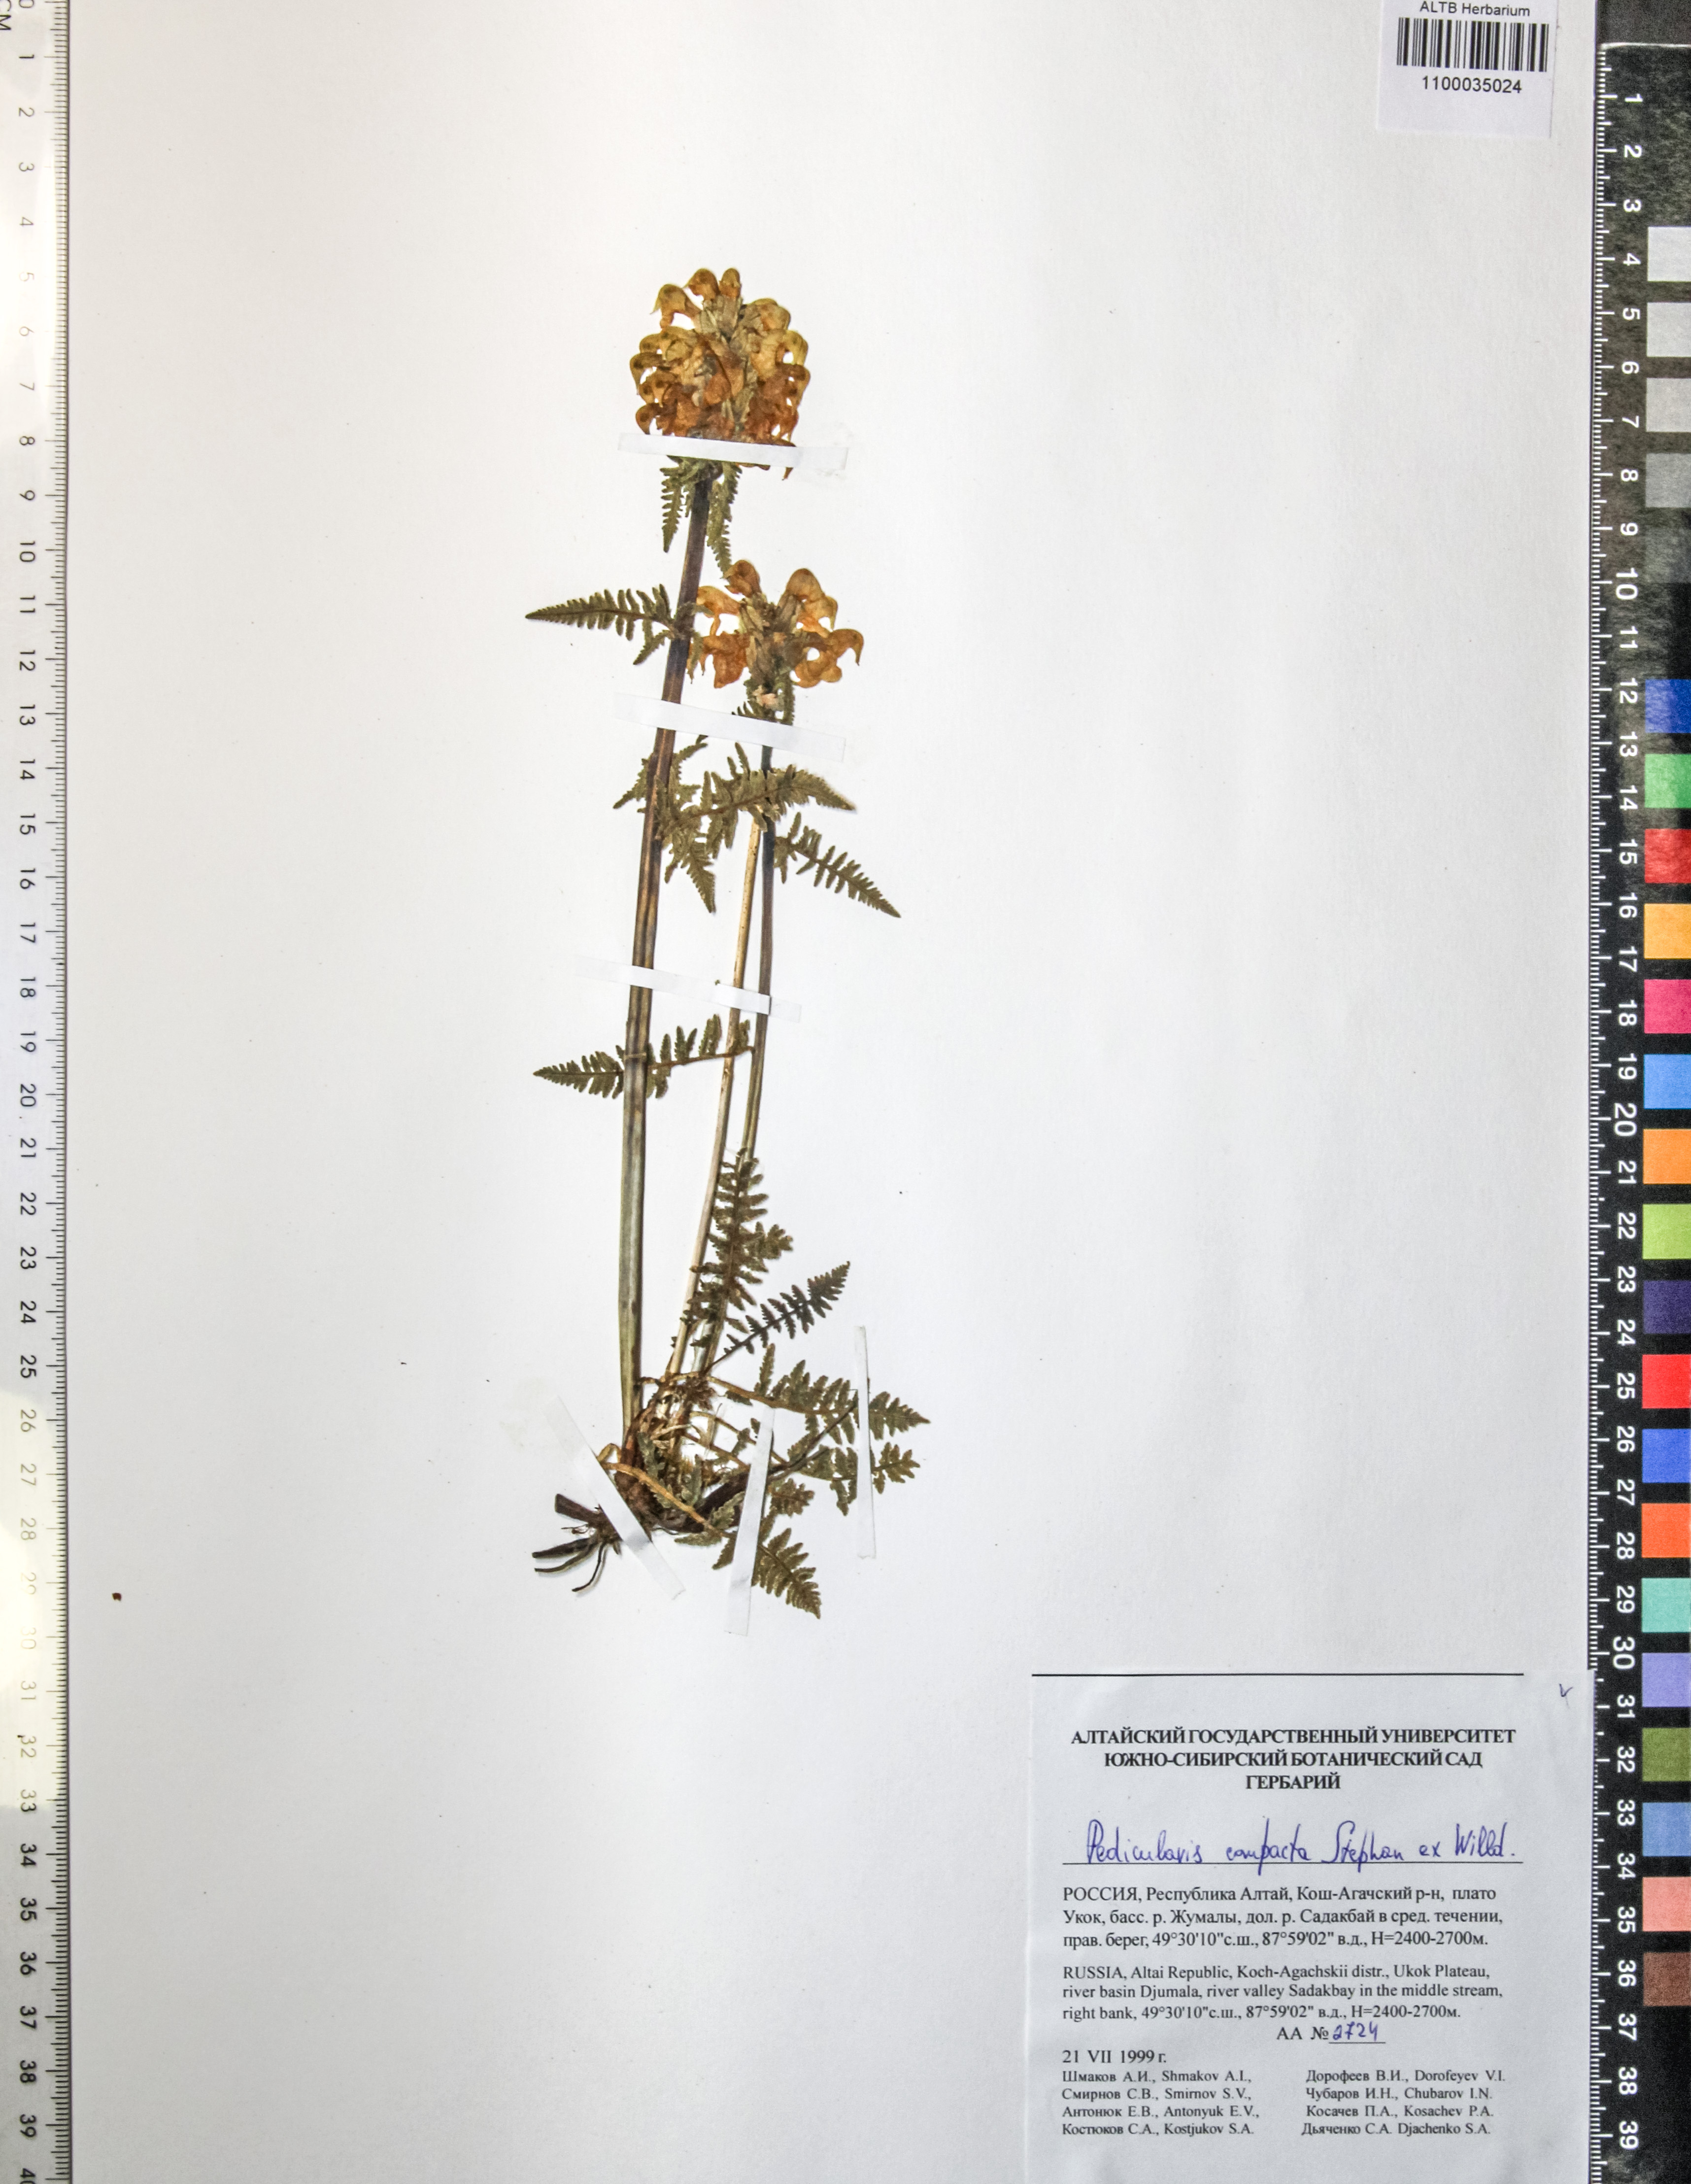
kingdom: Plantae
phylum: Tracheophyta
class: Magnoliopsida
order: Lamiales
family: Orobanchaceae
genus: Pedicularis
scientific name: Pedicularis compacta
